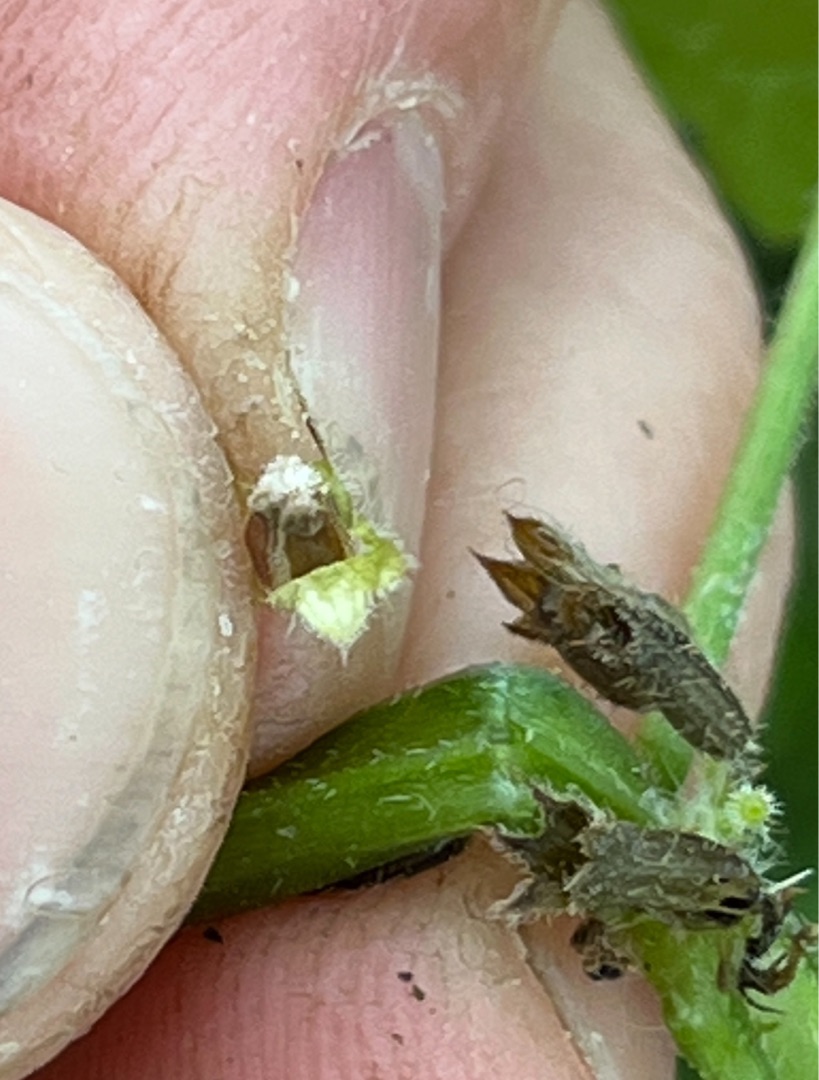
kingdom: Animalia
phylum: Arthropoda
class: Insecta
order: Diptera
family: Cecidomyiidae
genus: Janetiella
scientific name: Janetiella glechomae
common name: Korsknapfrøgalmyg
